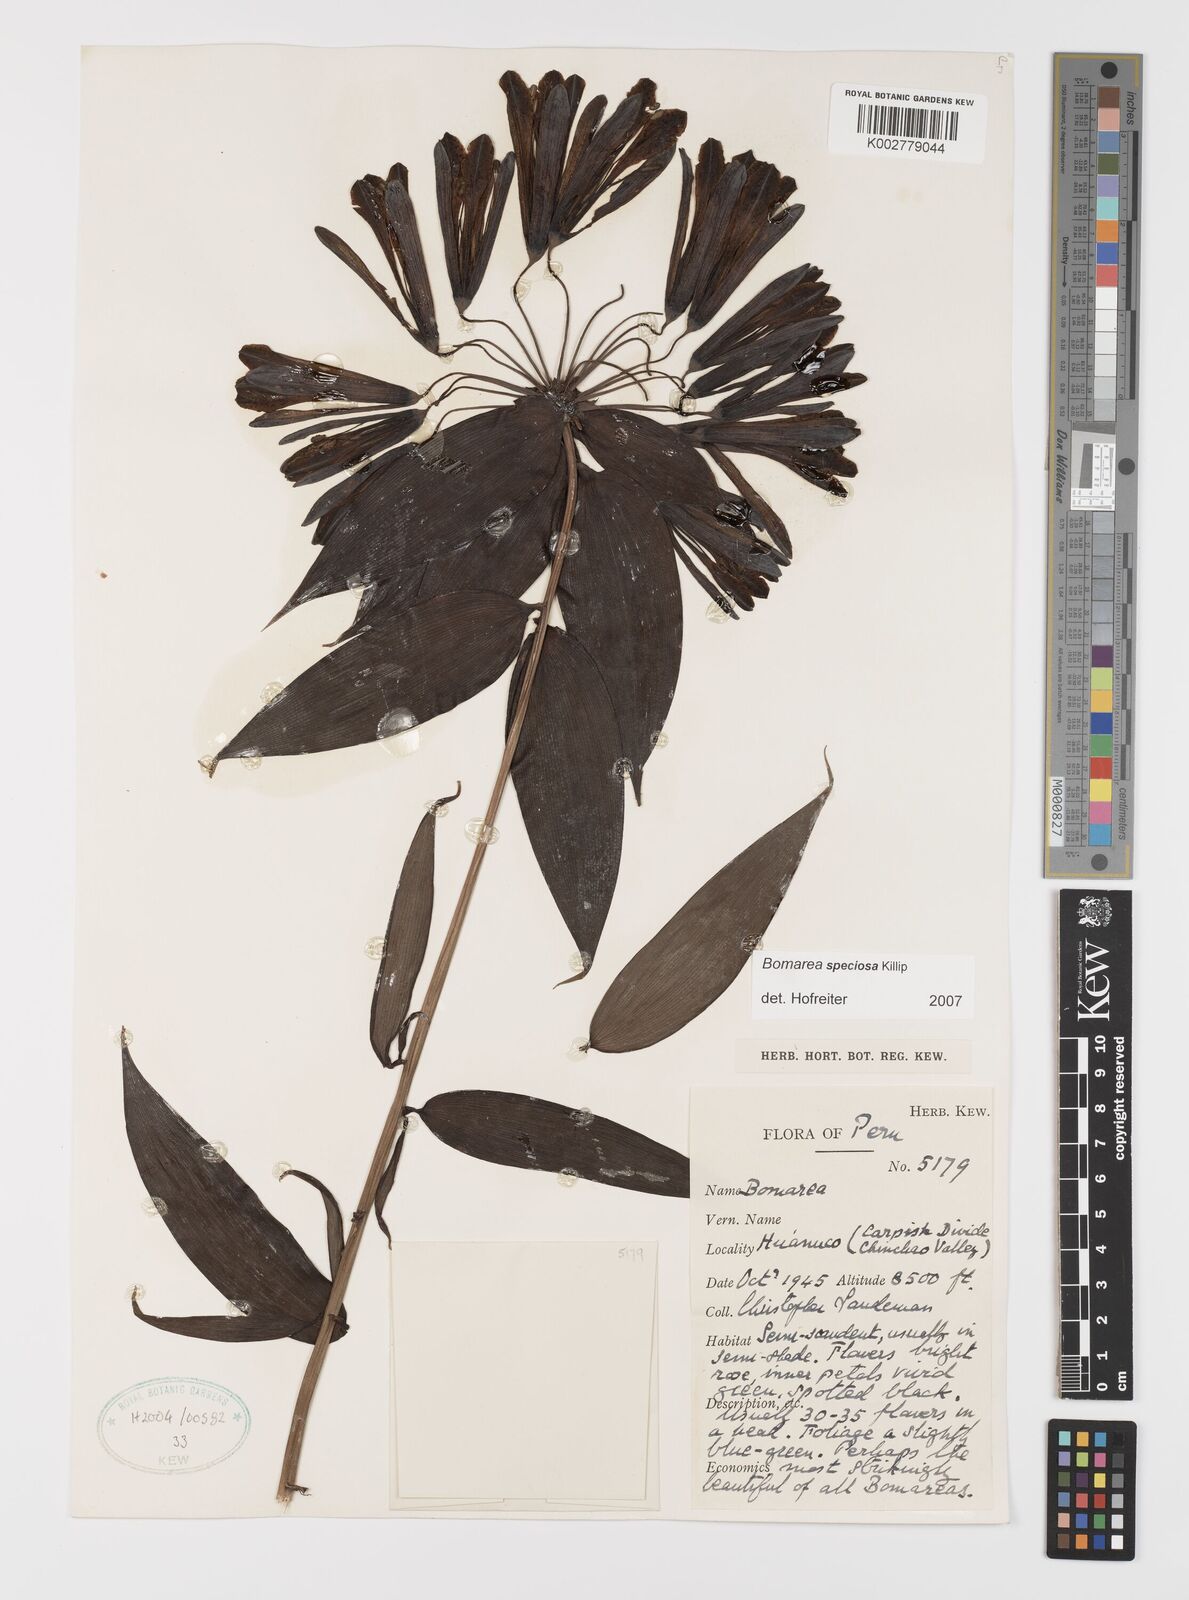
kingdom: Plantae
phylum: Tracheophyta
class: Liliopsida
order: Liliales
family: Alstroemeriaceae
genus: Bomarea
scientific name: Bomarea speciosa
